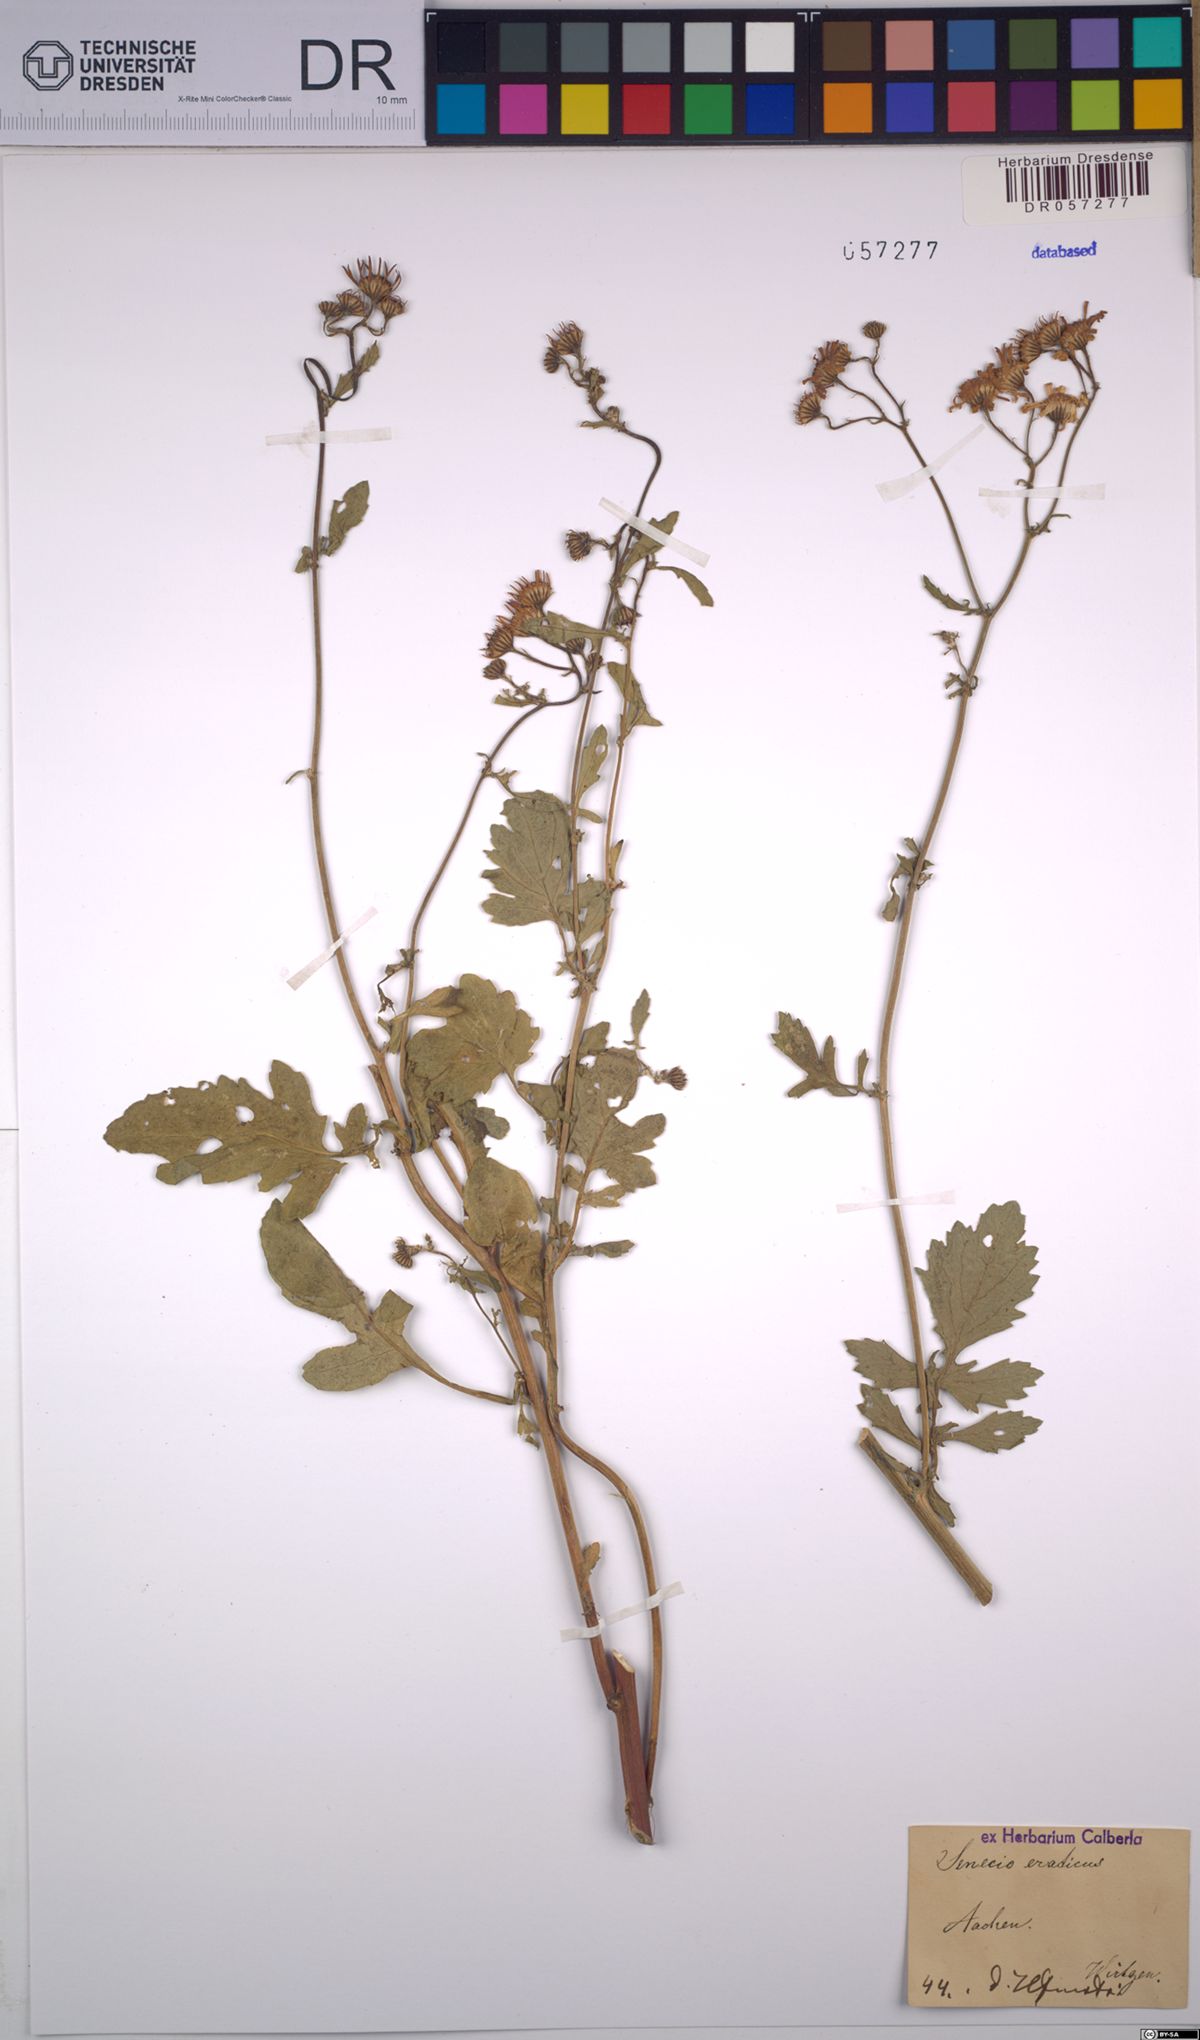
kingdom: Plantae
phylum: Tracheophyta
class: Magnoliopsida
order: Asterales
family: Asteraceae
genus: Jacobaea
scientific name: Jacobaea erratica
